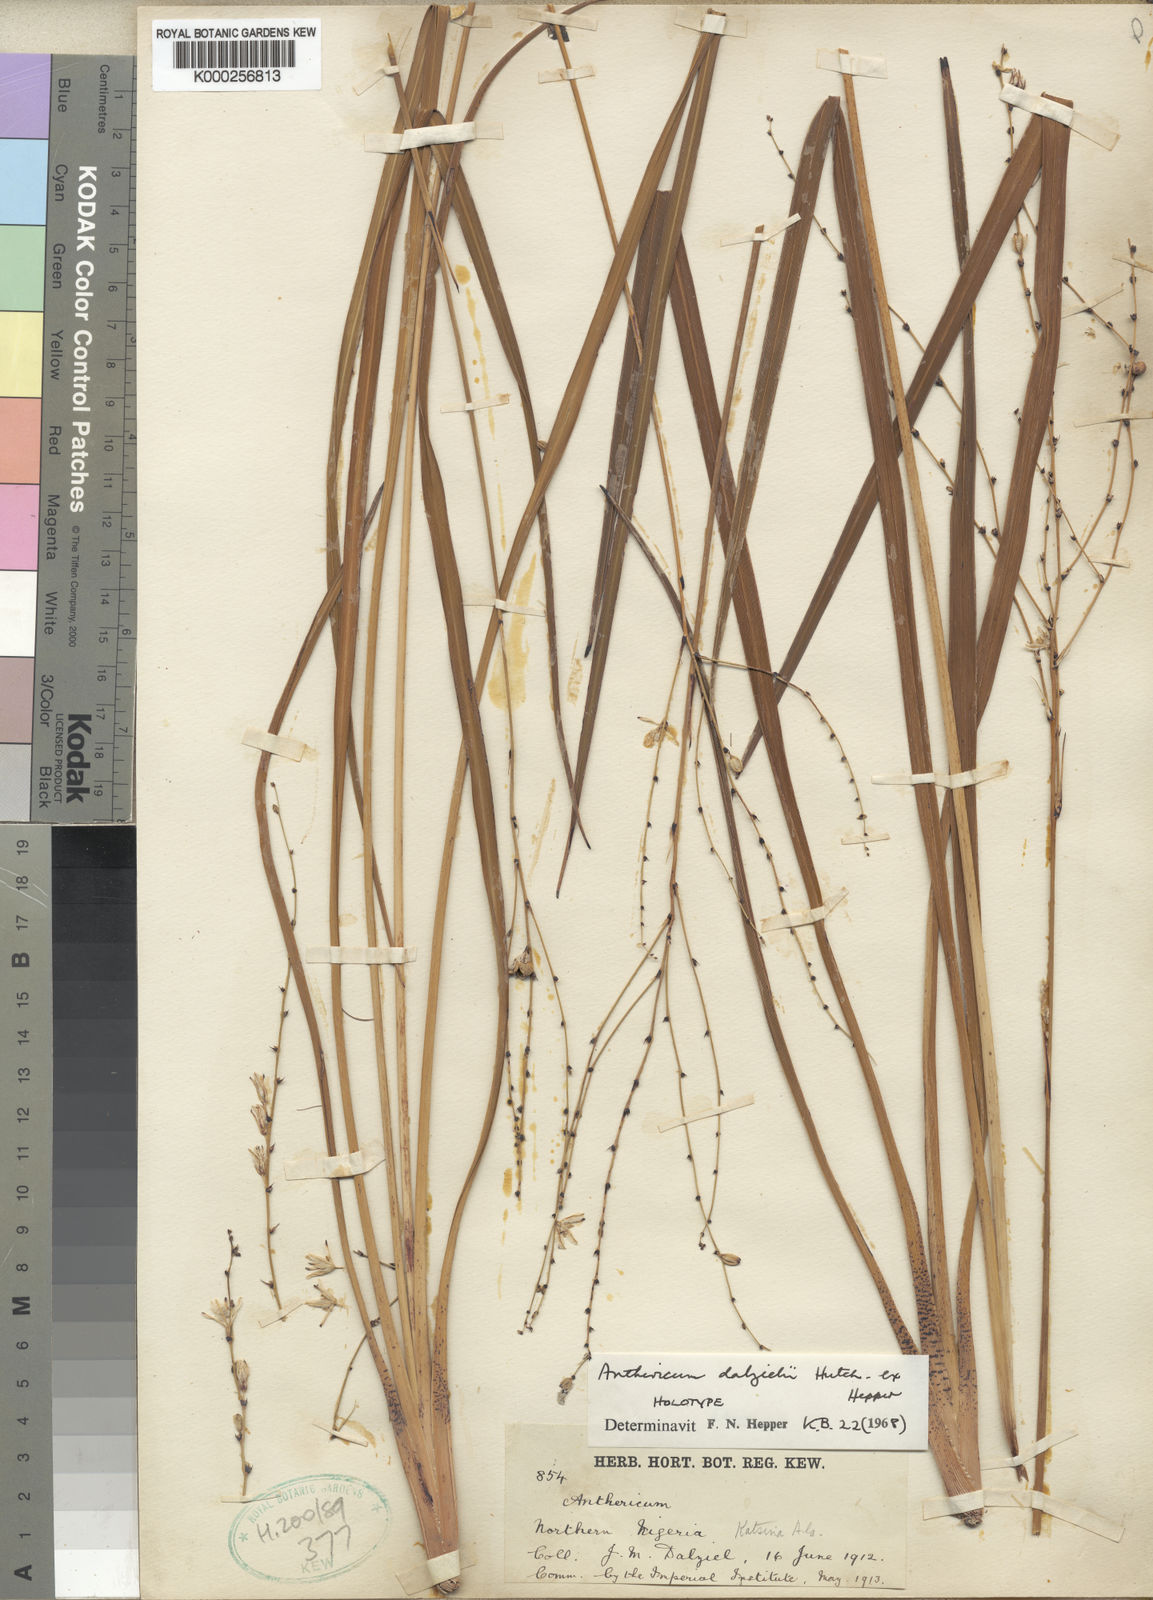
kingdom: Plantae
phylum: Tracheophyta
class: Liliopsida
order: Asparagales
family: Asparagaceae
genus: Chlorophytum
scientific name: Chlorophytum dalzielii
